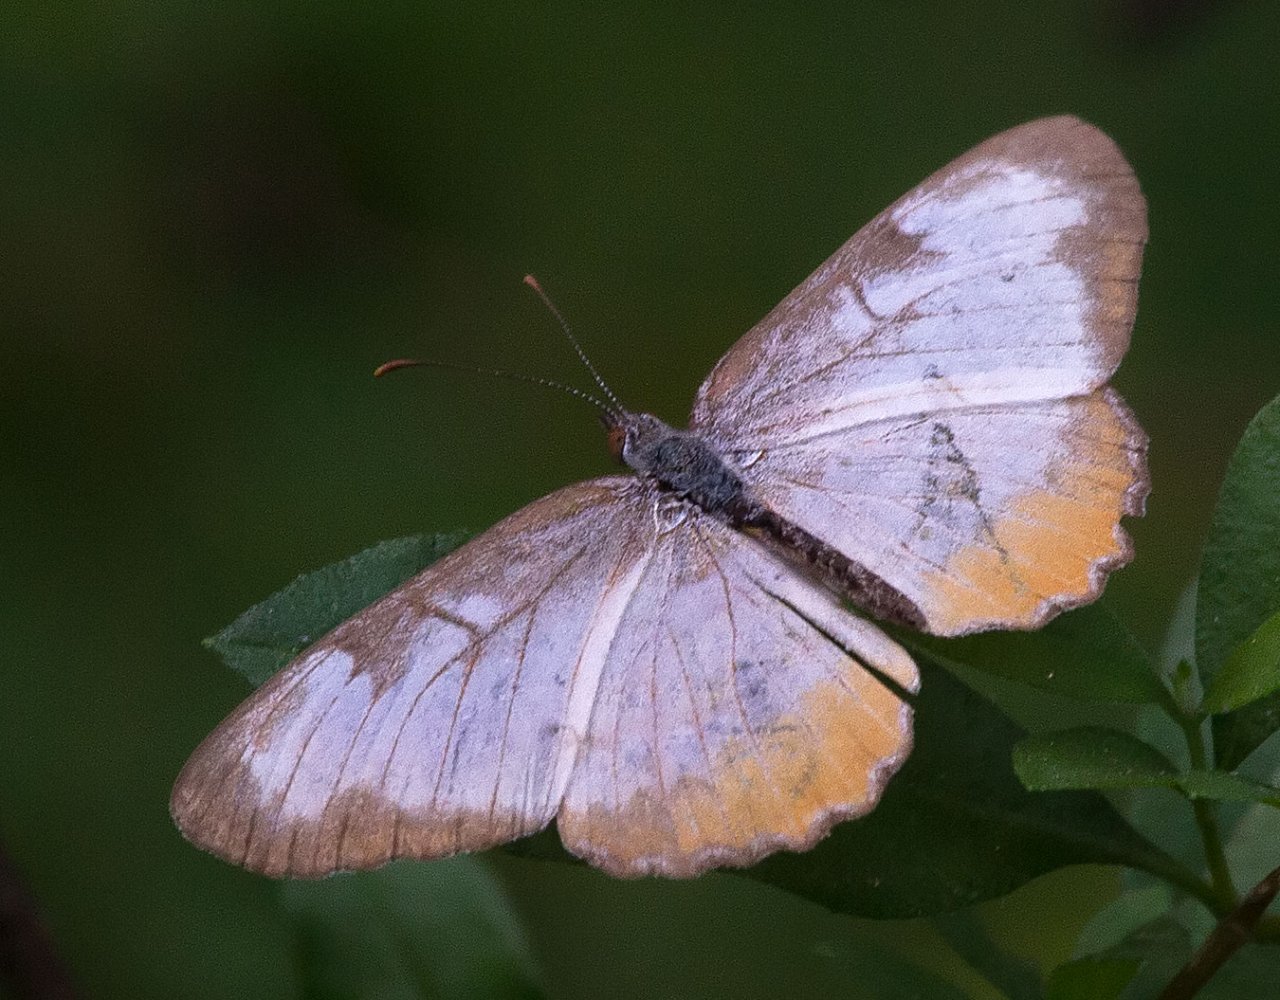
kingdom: Animalia
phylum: Arthropoda
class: Insecta
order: Lepidoptera
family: Nymphalidae
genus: Mestra
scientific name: Mestra amymone
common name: Common Mestra
